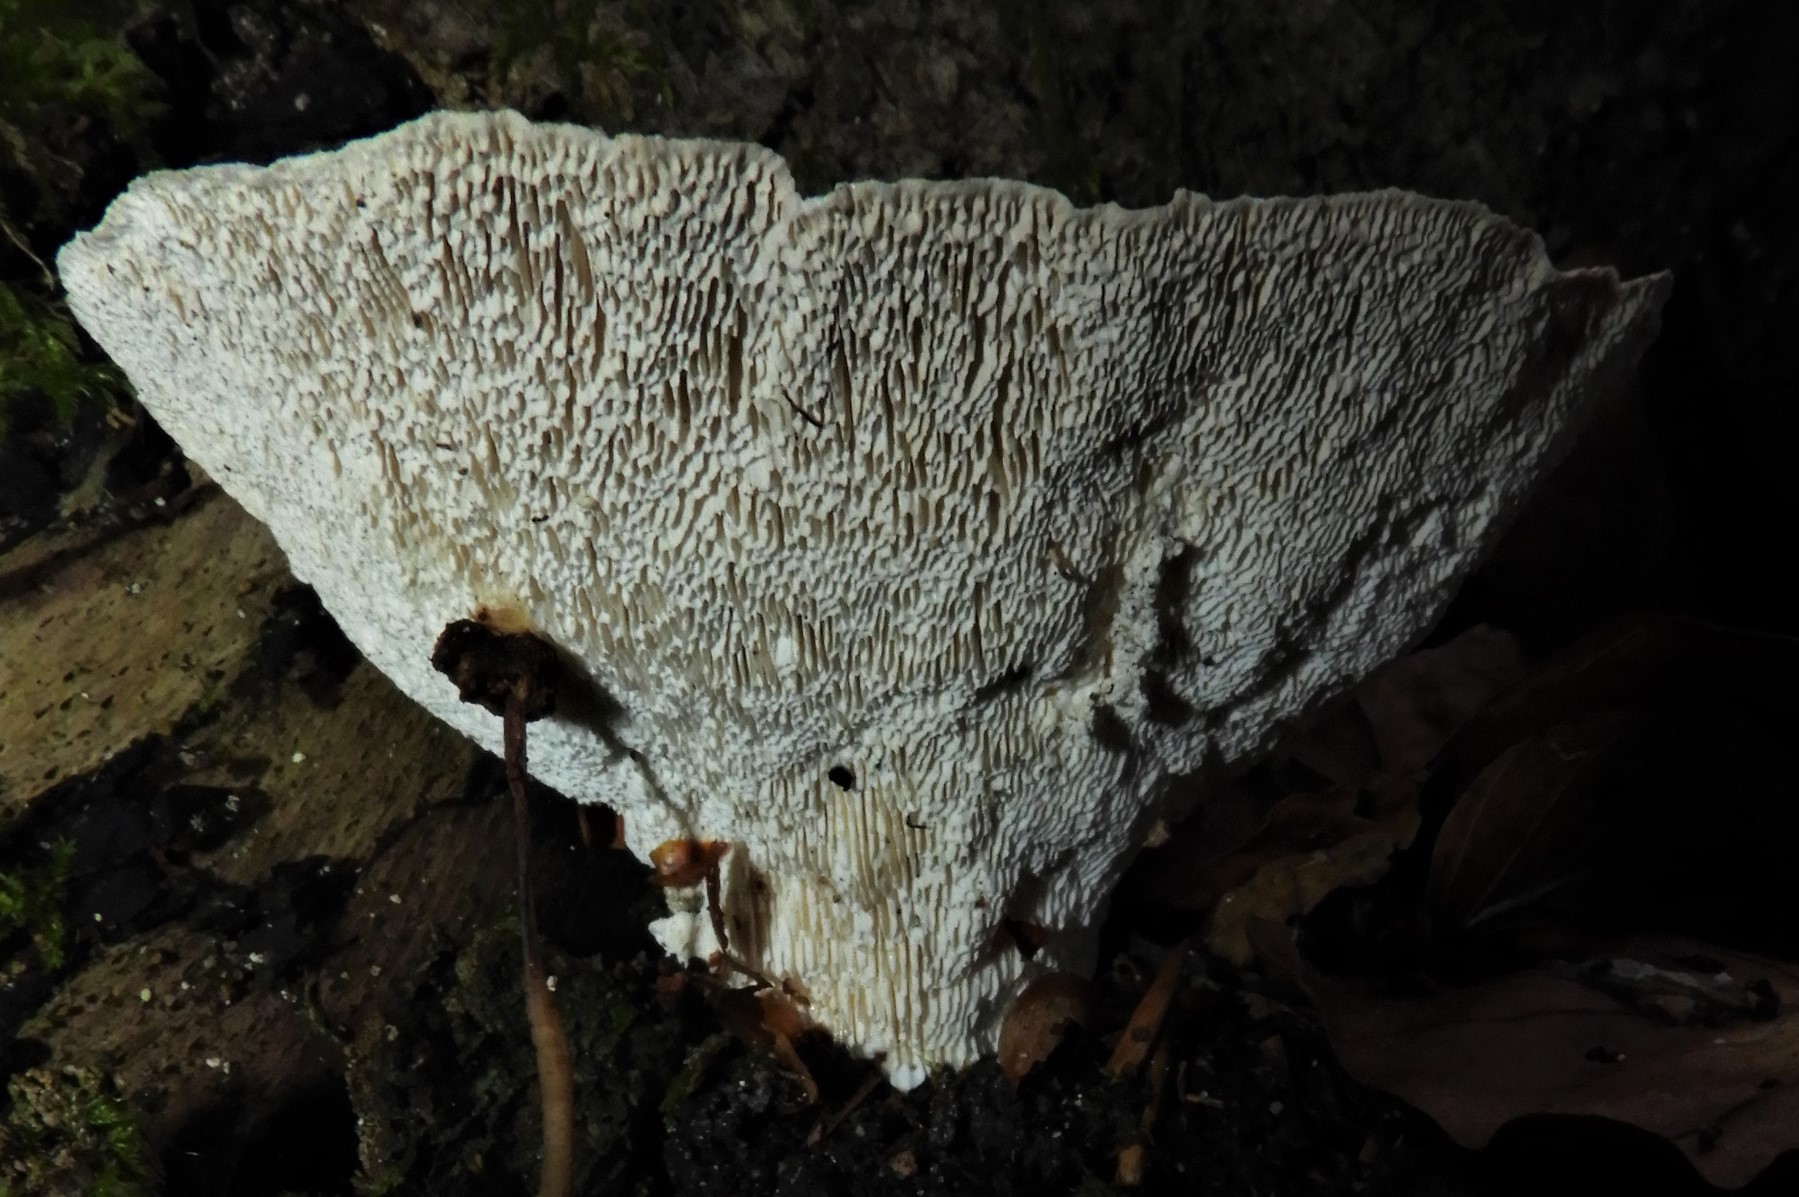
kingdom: Fungi
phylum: Basidiomycota
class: Agaricomycetes
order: Polyporales
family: Polyporaceae
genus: Trametes
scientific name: Trametes gibbosa
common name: puklet læderporesvamp
